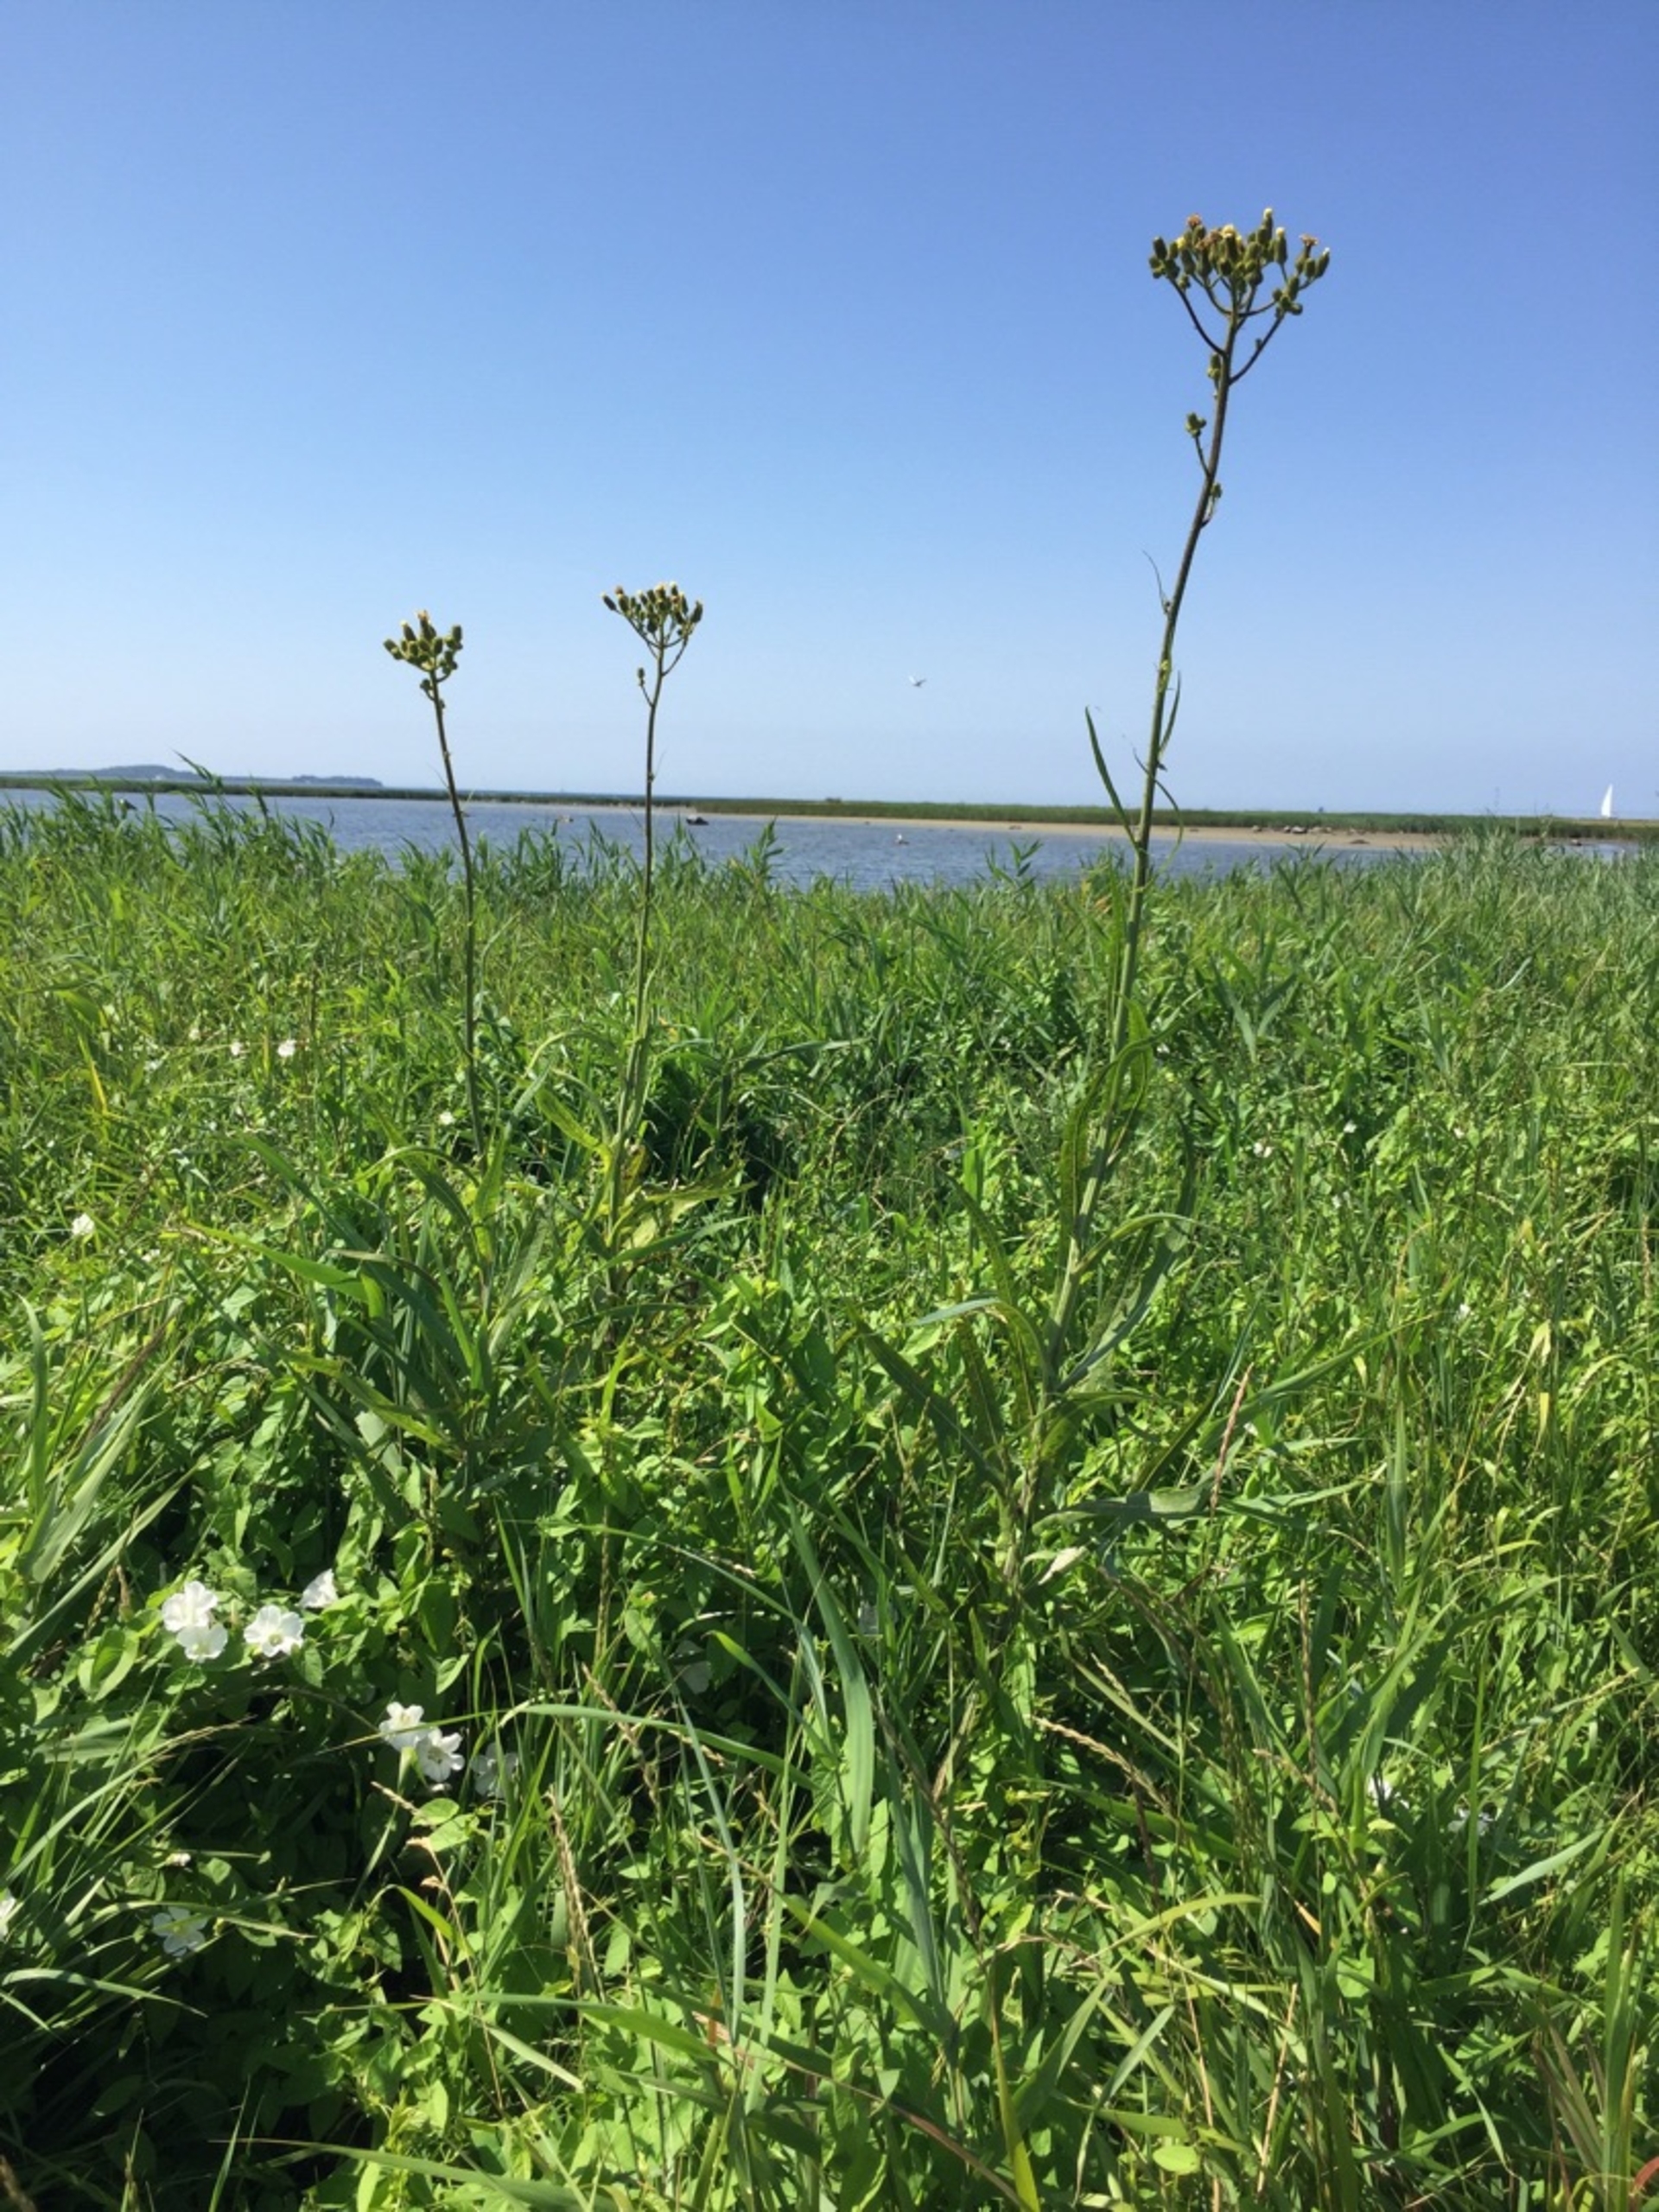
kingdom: Plantae
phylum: Tracheophyta
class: Magnoliopsida
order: Asterales
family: Asteraceae
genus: Sonchus
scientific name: Sonchus palustris
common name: Kær-svinemælk
